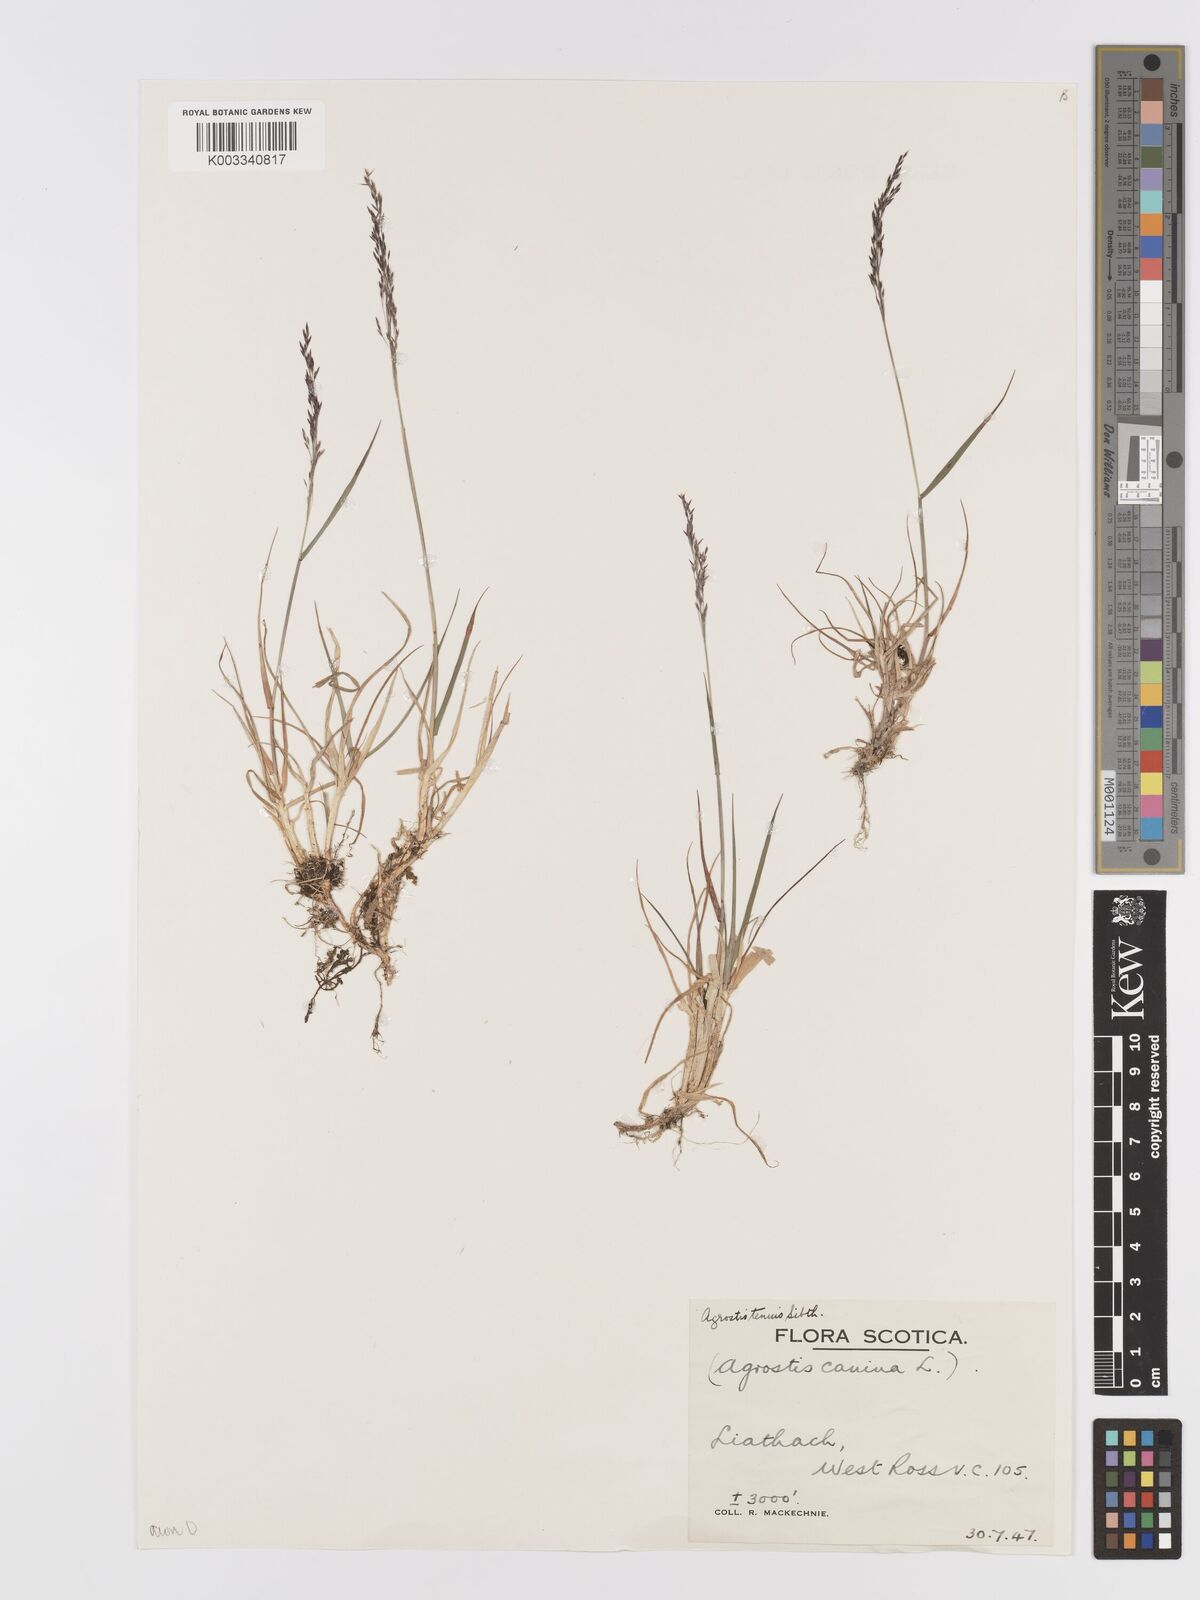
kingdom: Plantae
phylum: Tracheophyta
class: Liliopsida
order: Poales
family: Poaceae
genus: Agrostis
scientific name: Agrostis capillaris
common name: Colonial bentgrass
